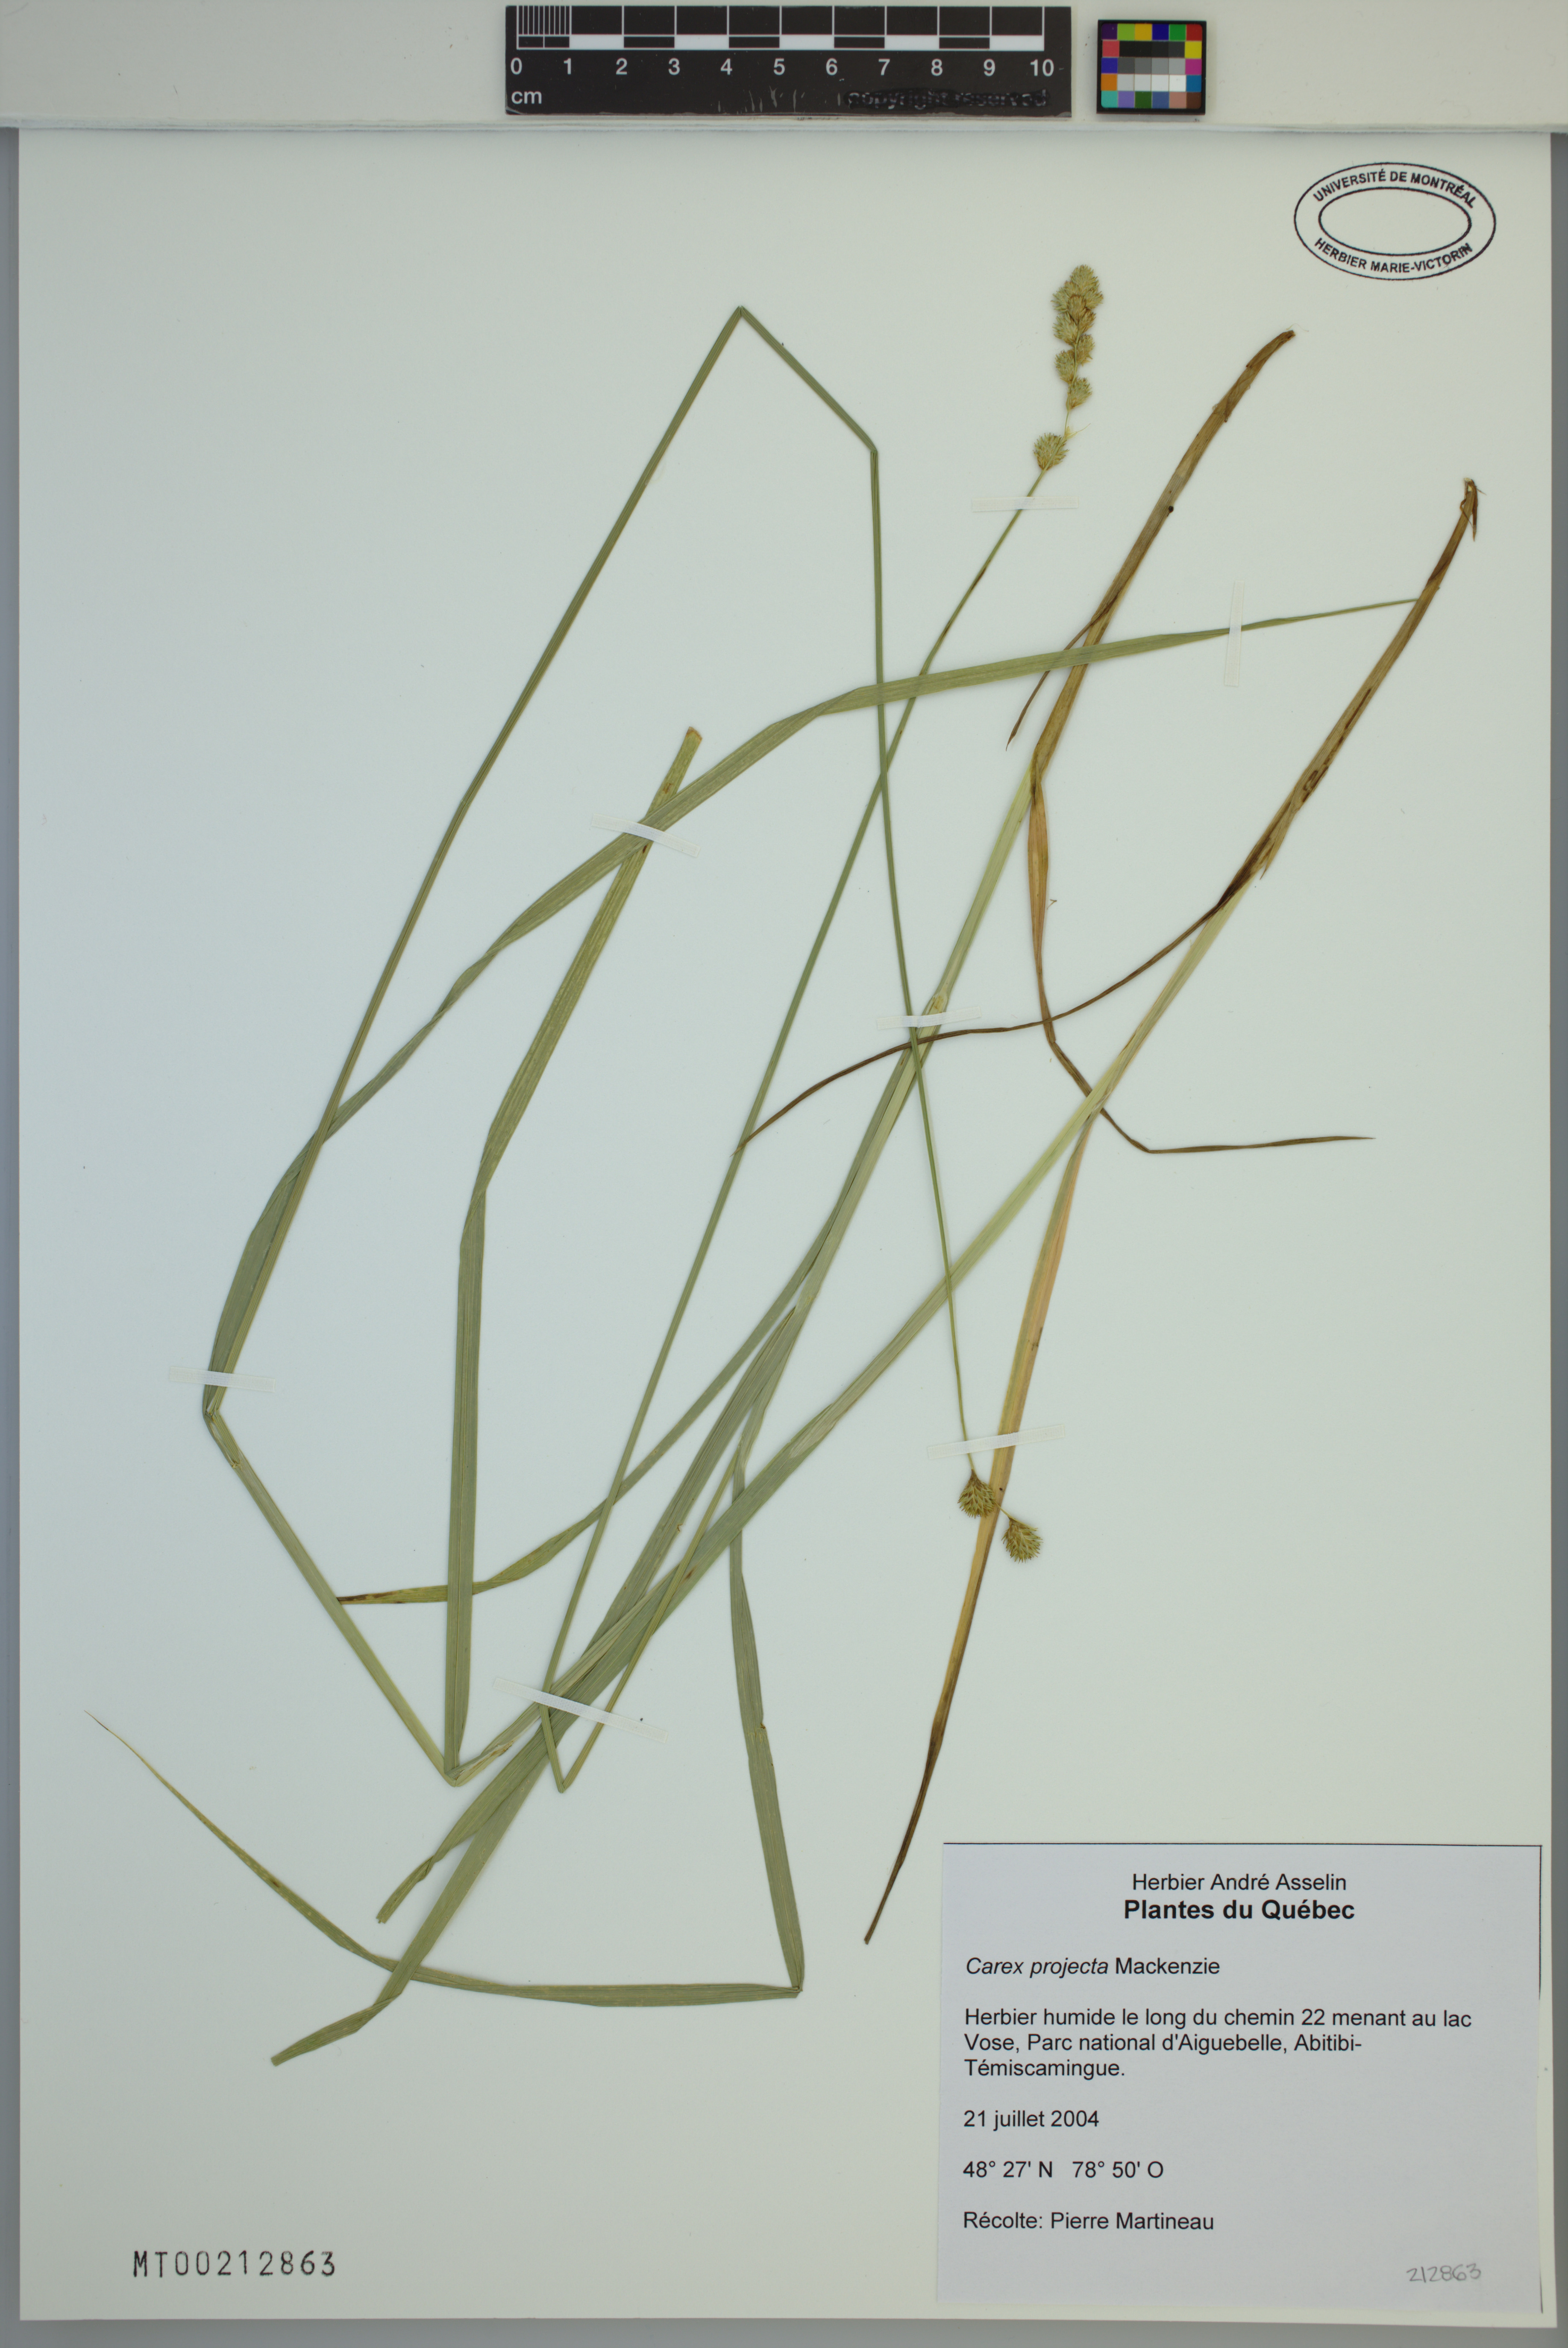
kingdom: Plantae
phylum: Tracheophyta
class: Liliopsida
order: Poales
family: Cyperaceae
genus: Carex
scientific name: Carex projecta
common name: Loose-headed oval sedge
